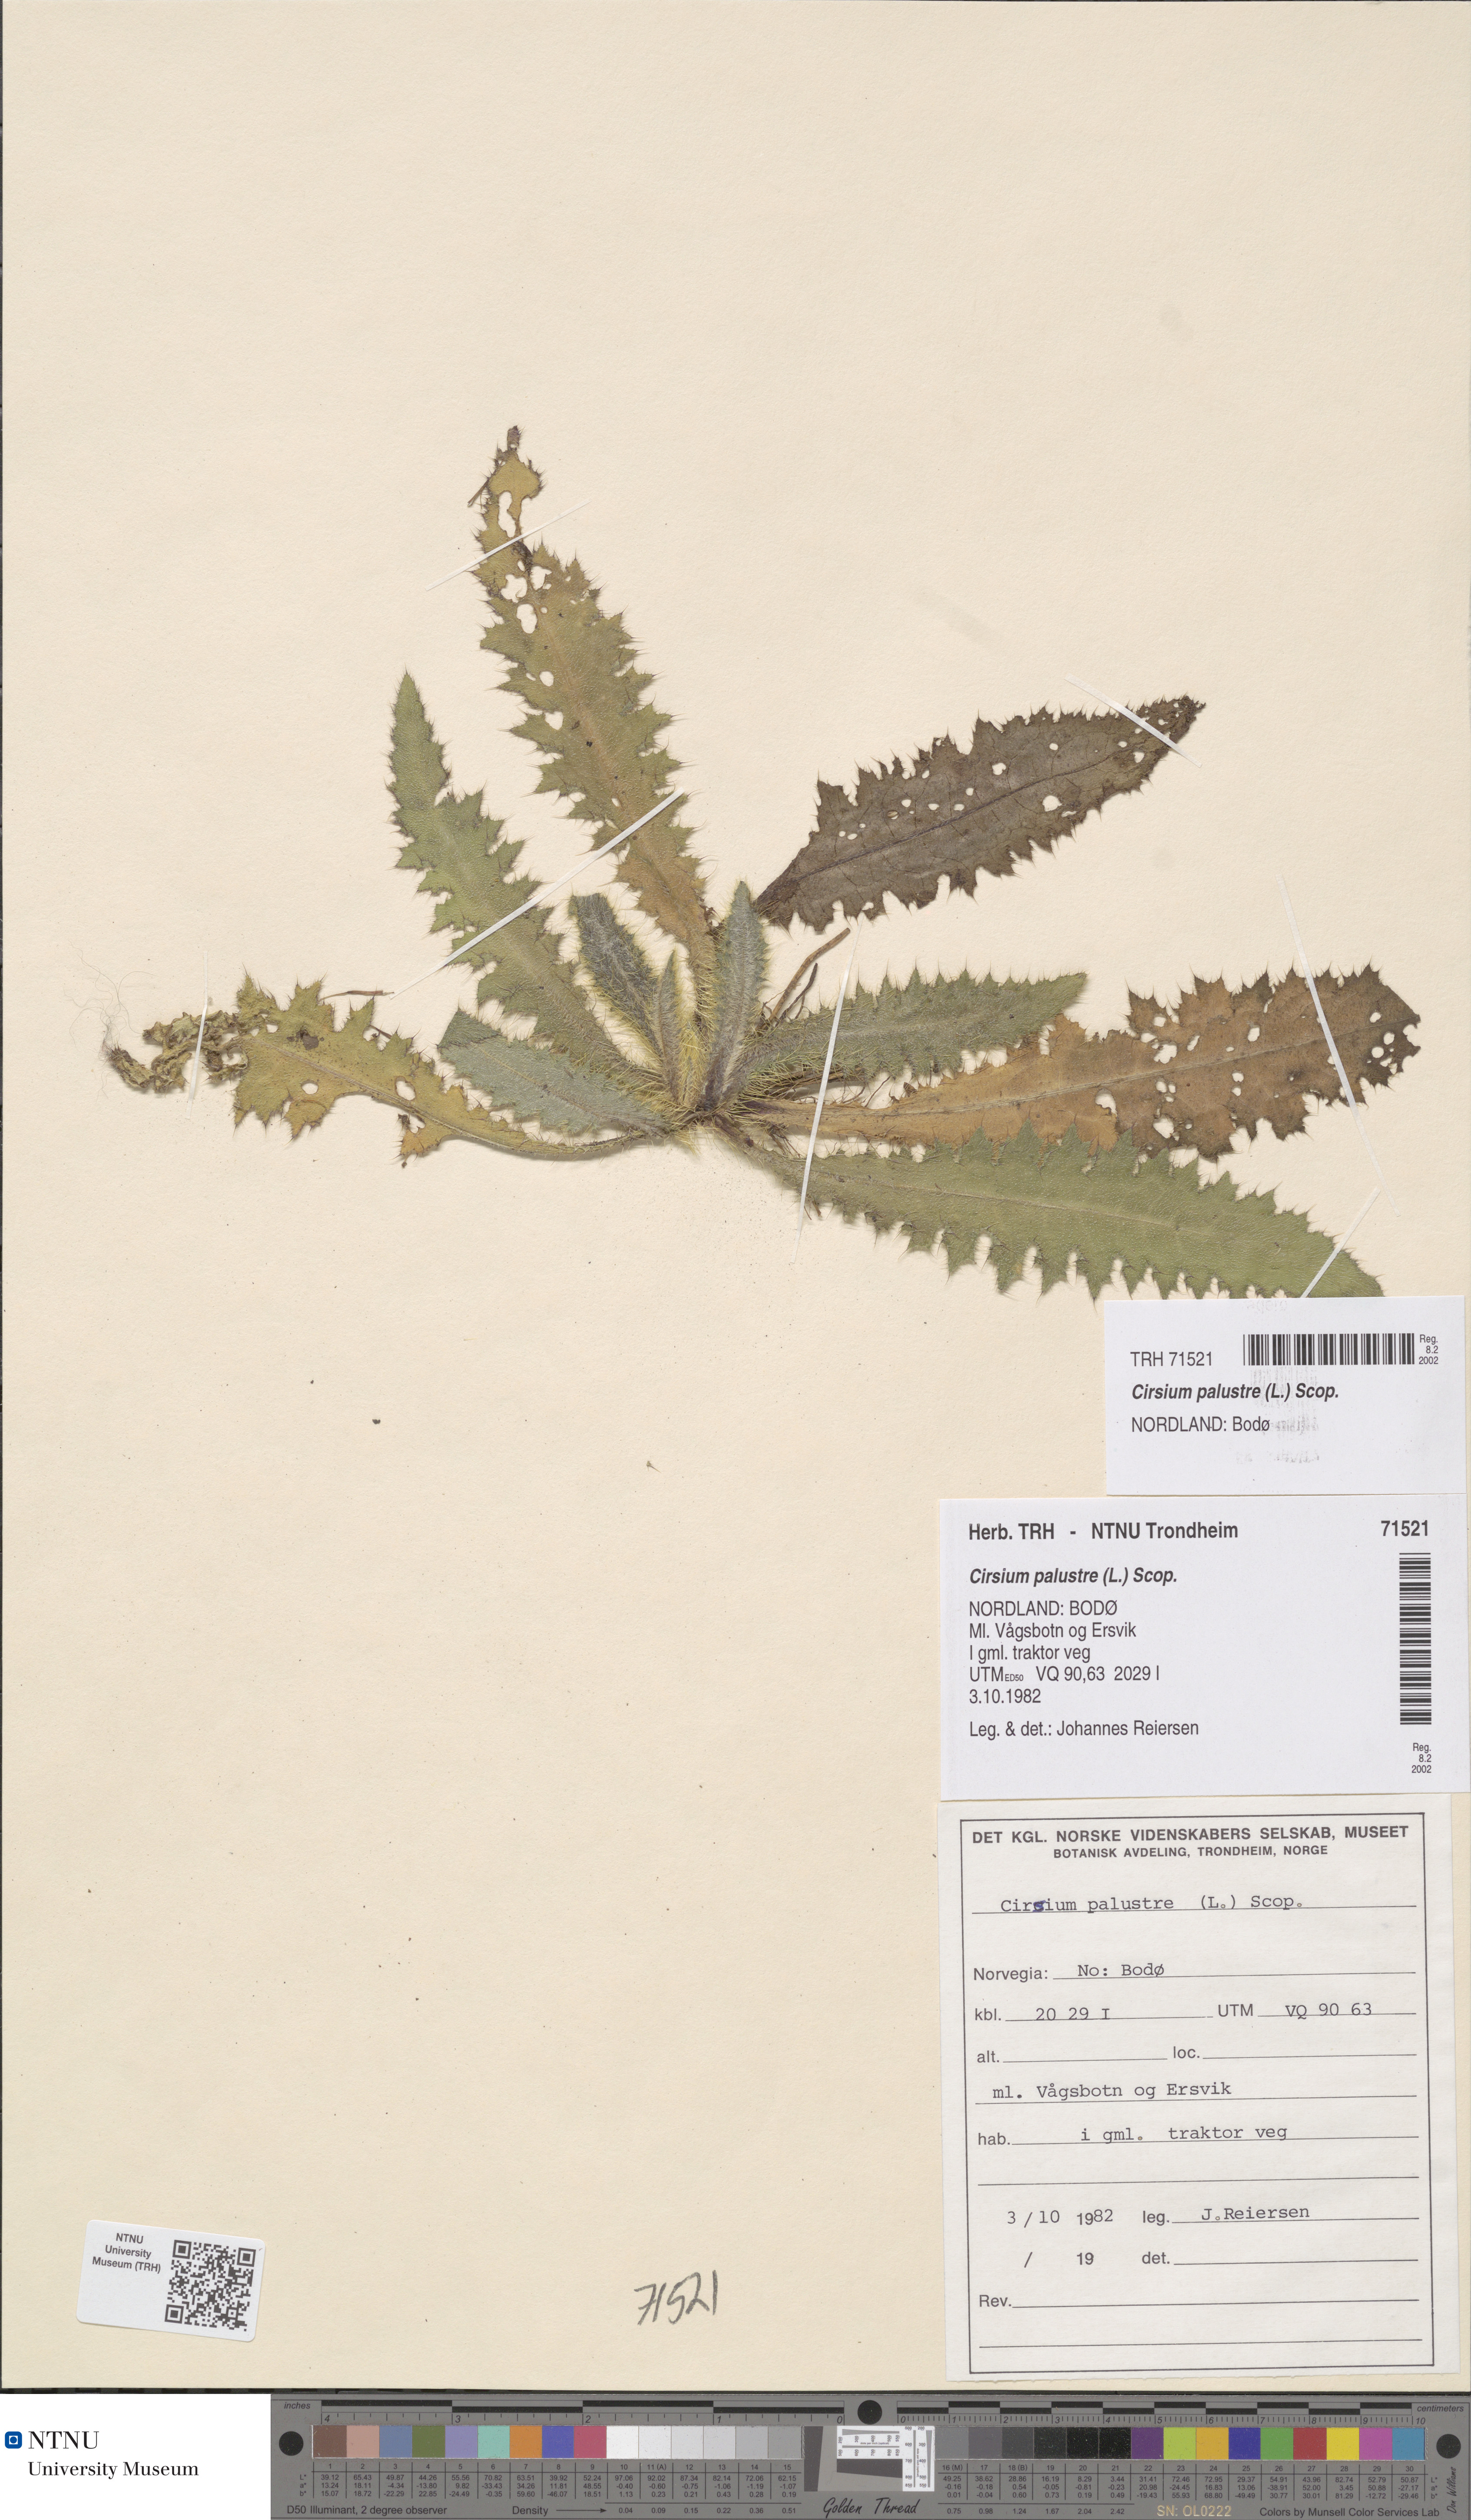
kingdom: Plantae
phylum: Tracheophyta
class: Magnoliopsida
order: Asterales
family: Asteraceae
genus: Cirsium
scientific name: Cirsium palustre
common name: Marsh thistle
